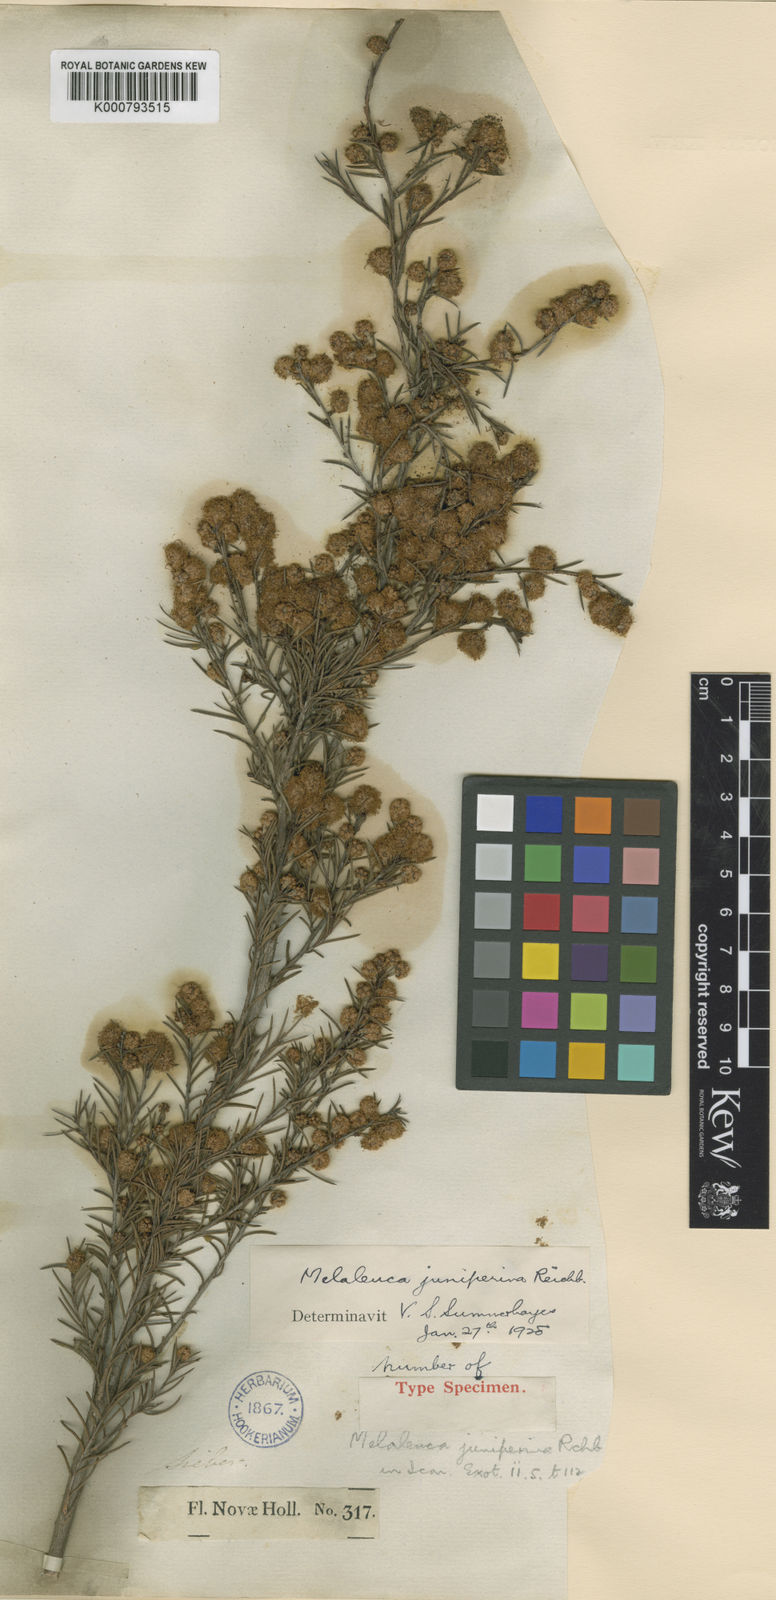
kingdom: Plantae
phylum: Tracheophyta
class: Magnoliopsida
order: Myrtales
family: Myrtaceae
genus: Melaleuca
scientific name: Melaleuca nodosa
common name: Prickly-leaf paperbark
